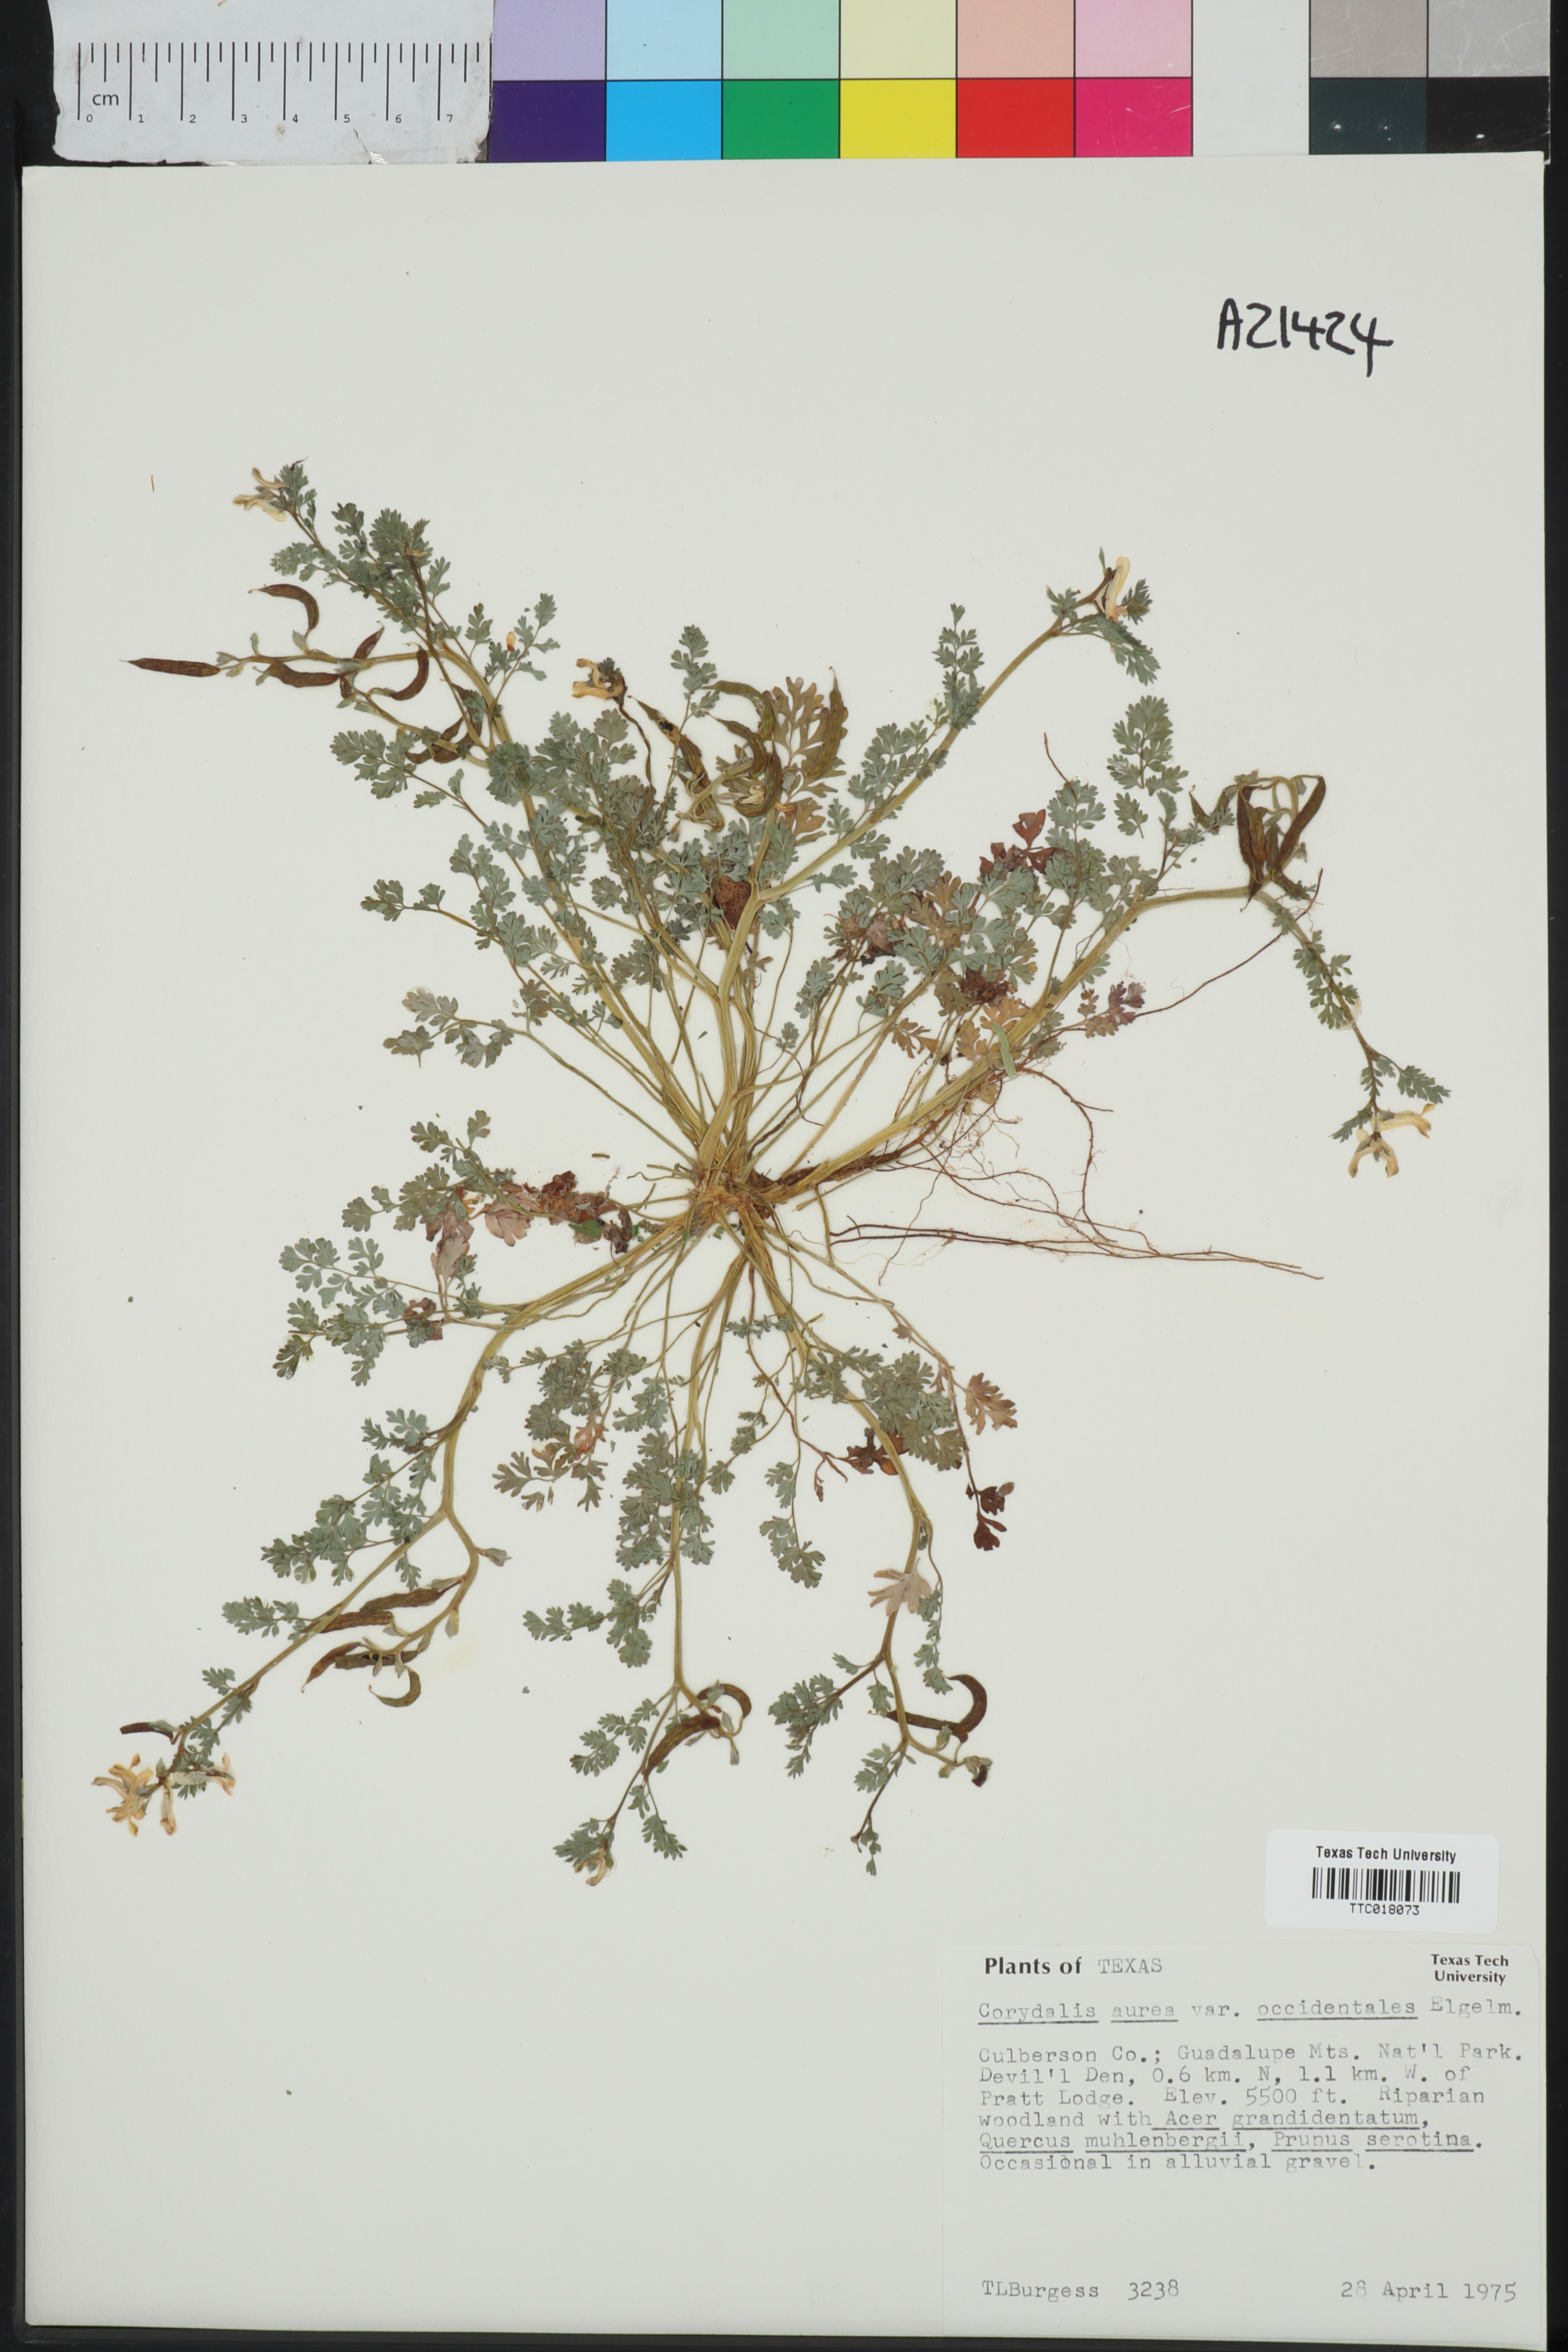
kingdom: Plantae
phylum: Tracheophyta
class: Magnoliopsida
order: Ranunculales
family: Papaveraceae
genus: Corydalis
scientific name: Corydalis curvisiliqua
